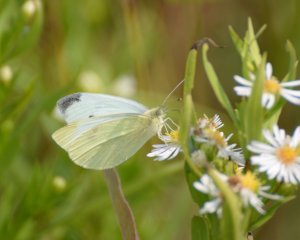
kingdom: Animalia
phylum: Arthropoda
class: Insecta
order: Lepidoptera
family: Pieridae
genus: Pieris
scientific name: Pieris rapae
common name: Cabbage White
